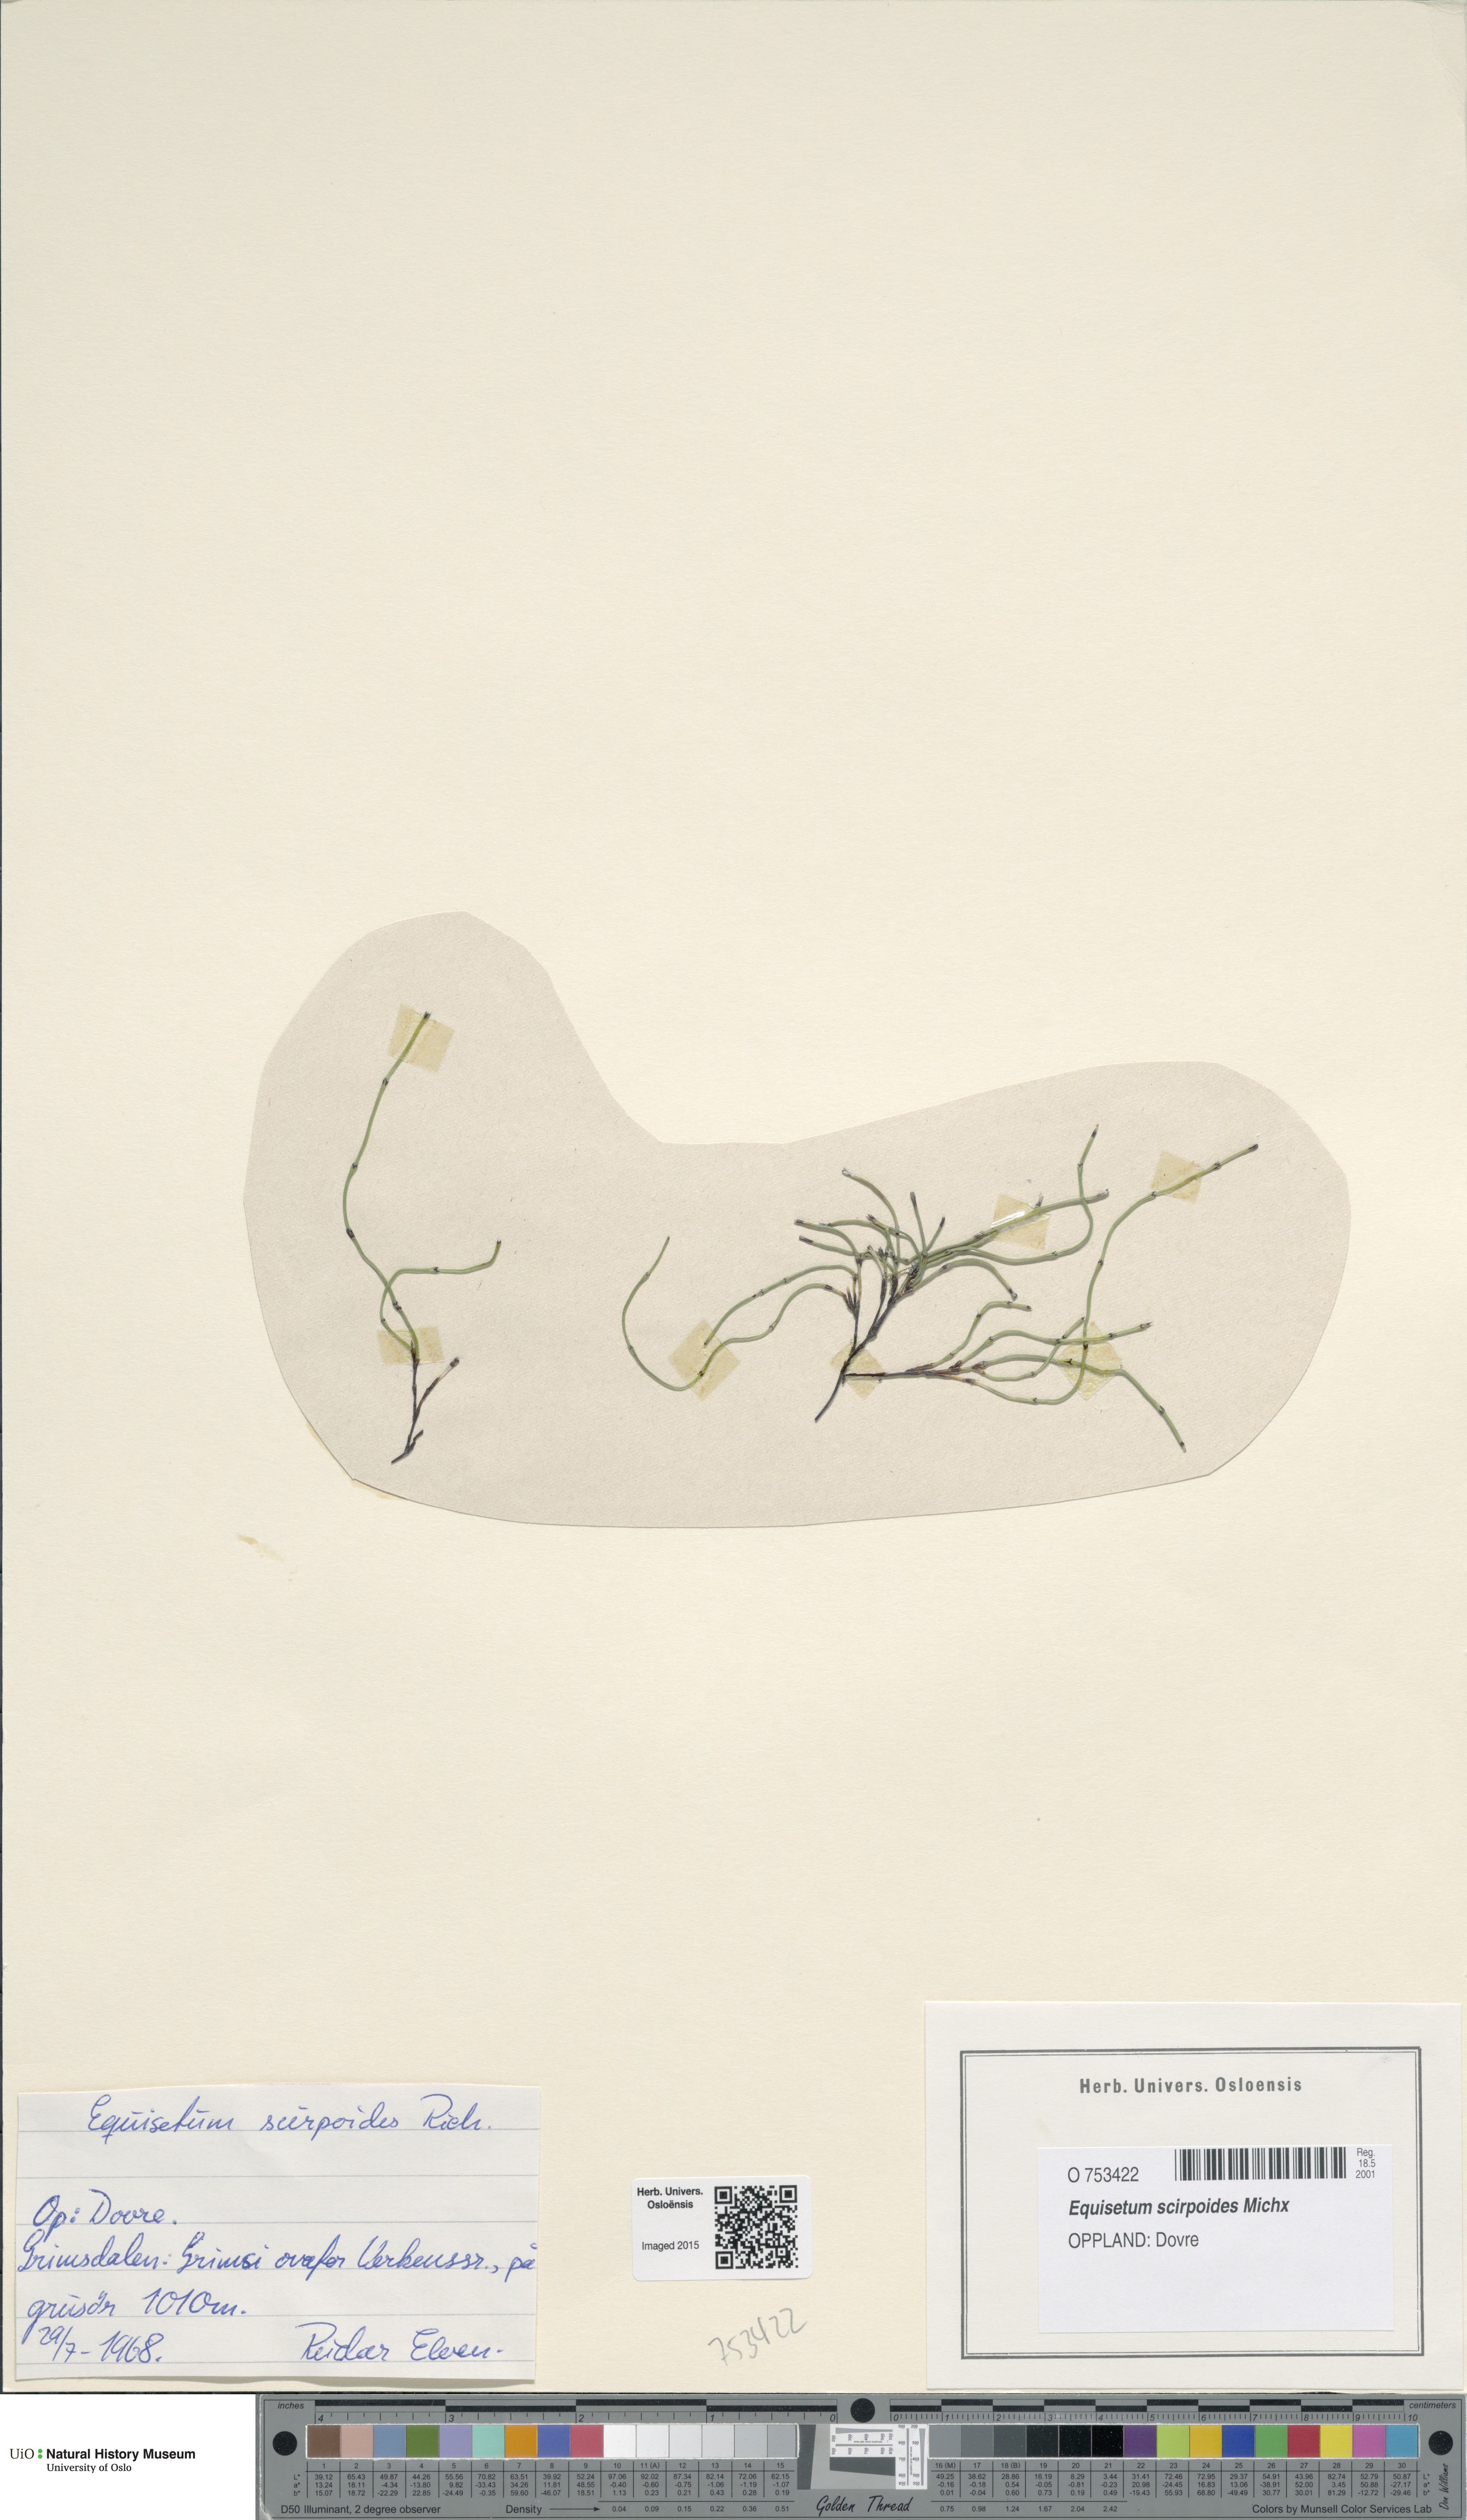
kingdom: Plantae
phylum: Tracheophyta
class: Polypodiopsida
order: Equisetales
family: Equisetaceae
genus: Equisetum
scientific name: Equisetum scirpoides
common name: Delicate horsetail
